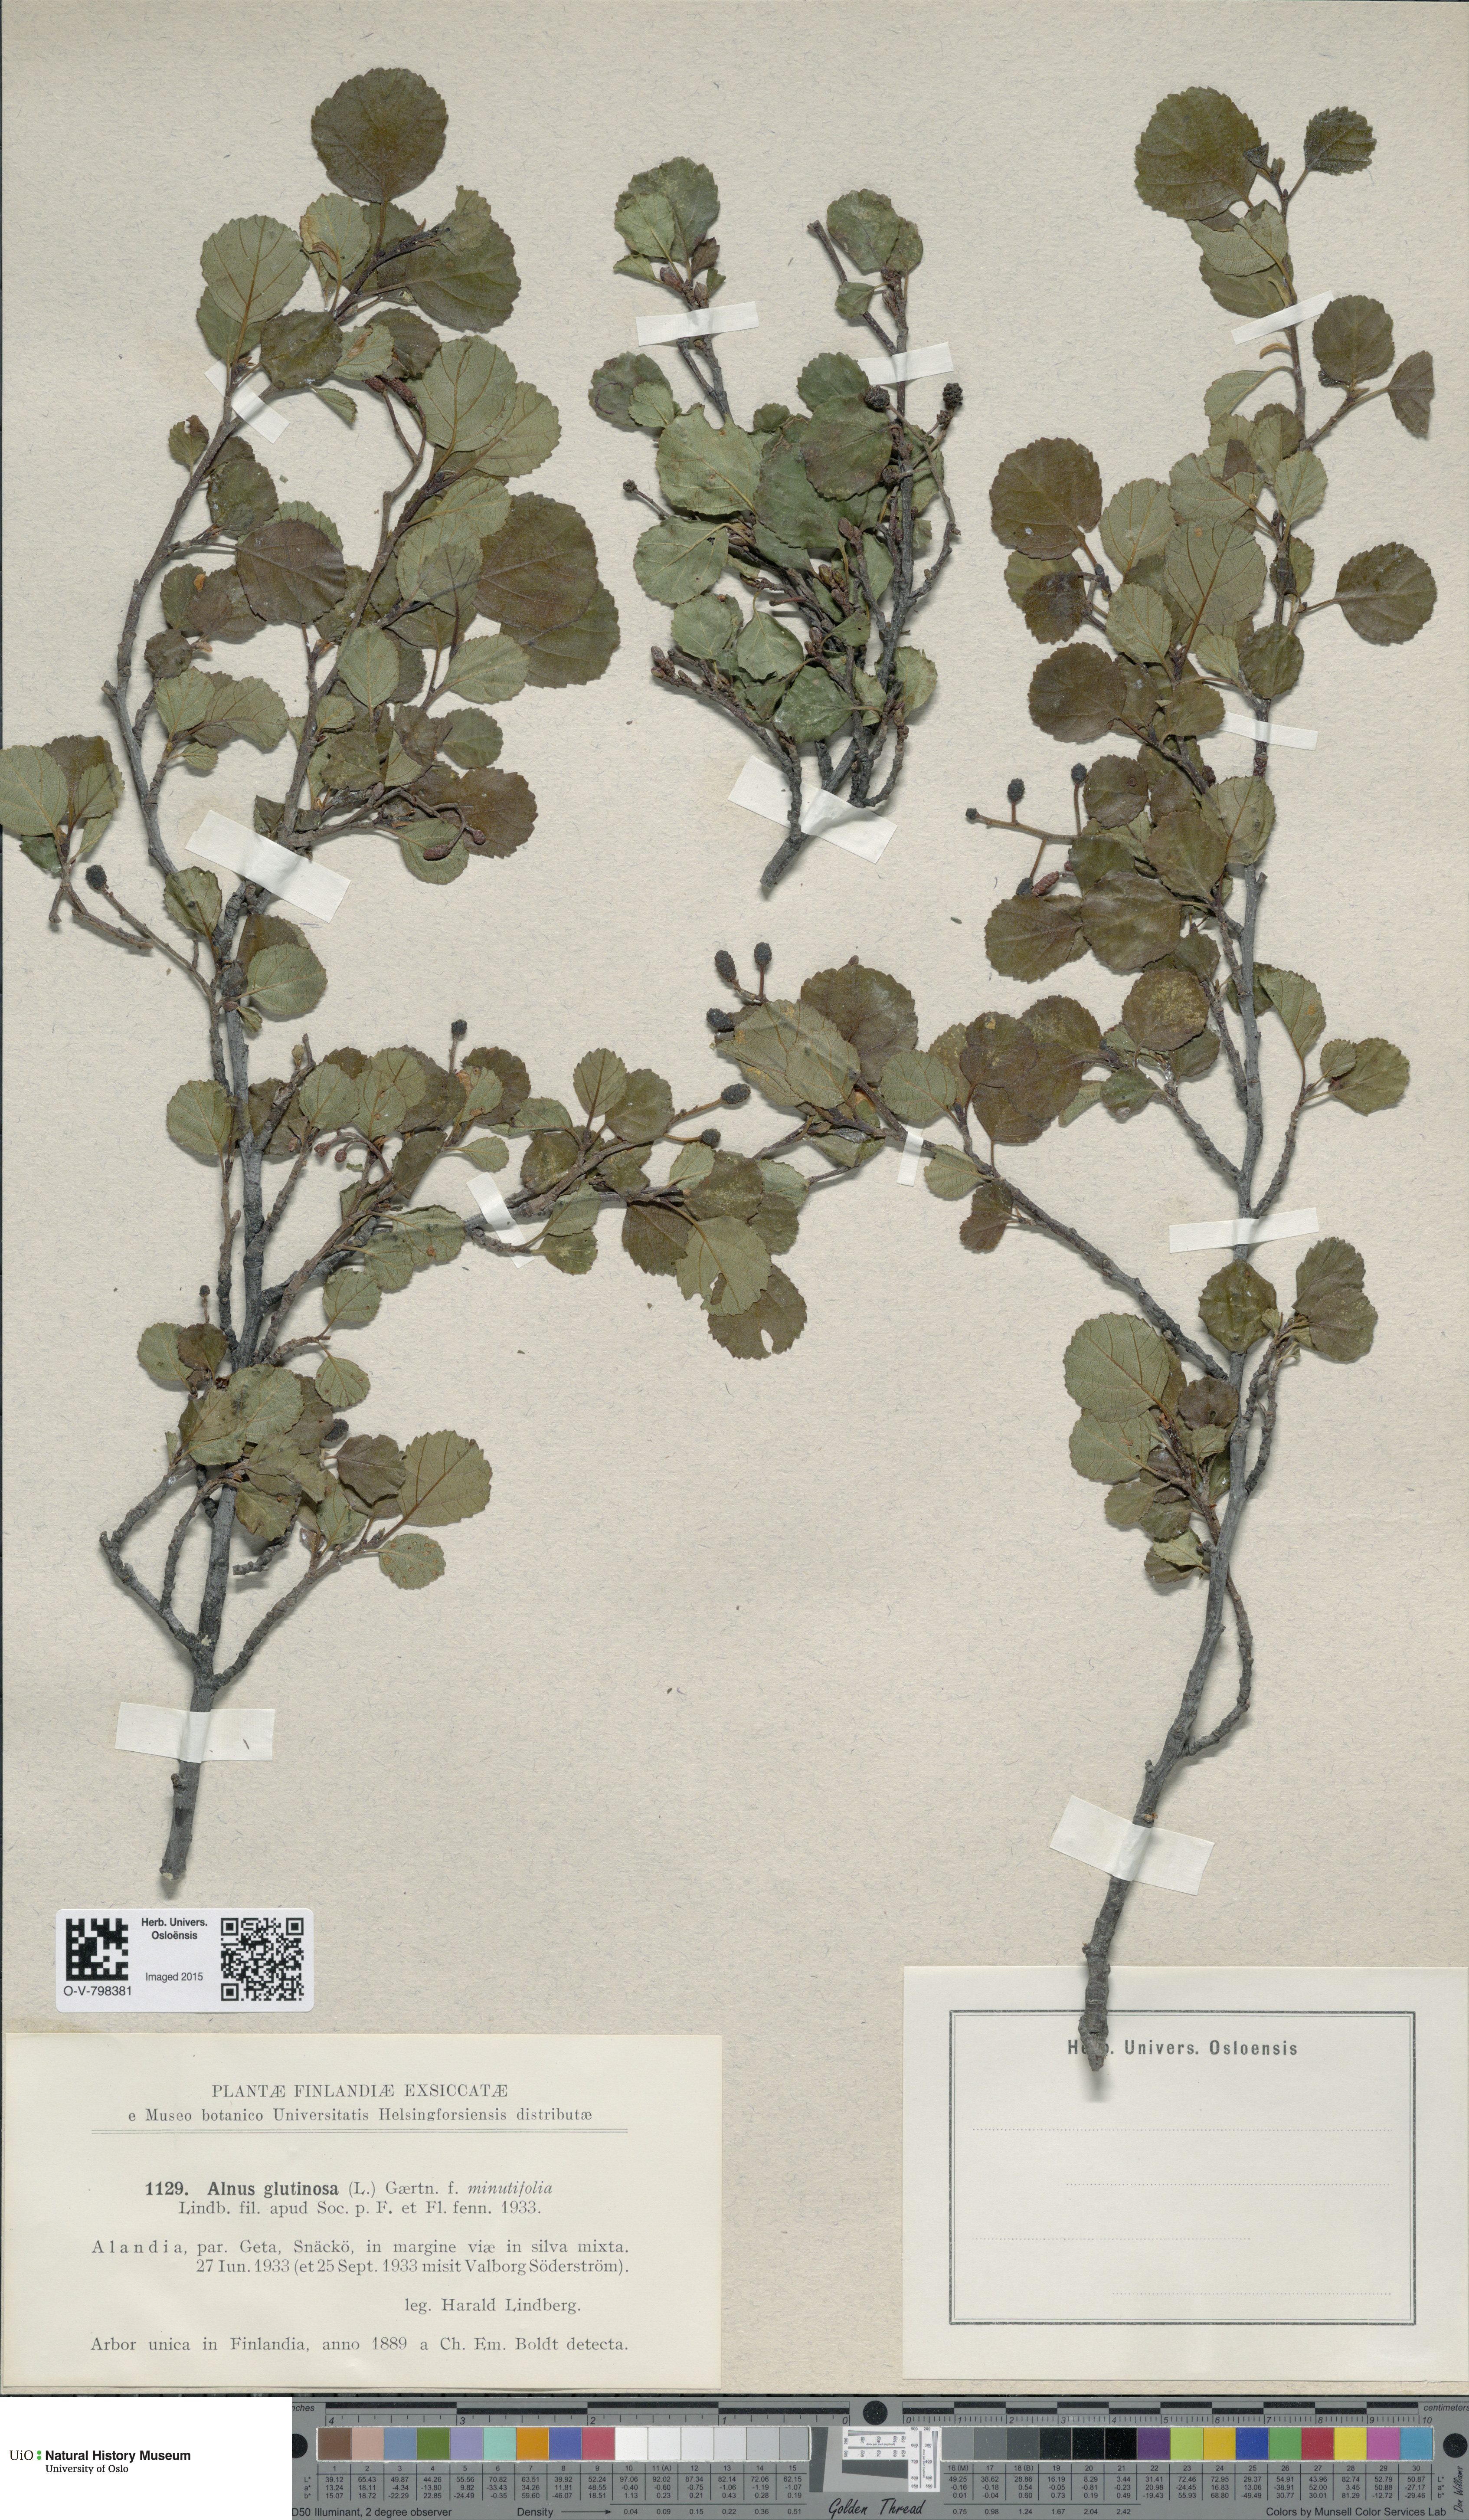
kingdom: Plantae
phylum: Tracheophyta
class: Magnoliopsida
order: Fagales
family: Betulaceae
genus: Alnus
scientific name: Alnus glutinosa
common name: Black alder
